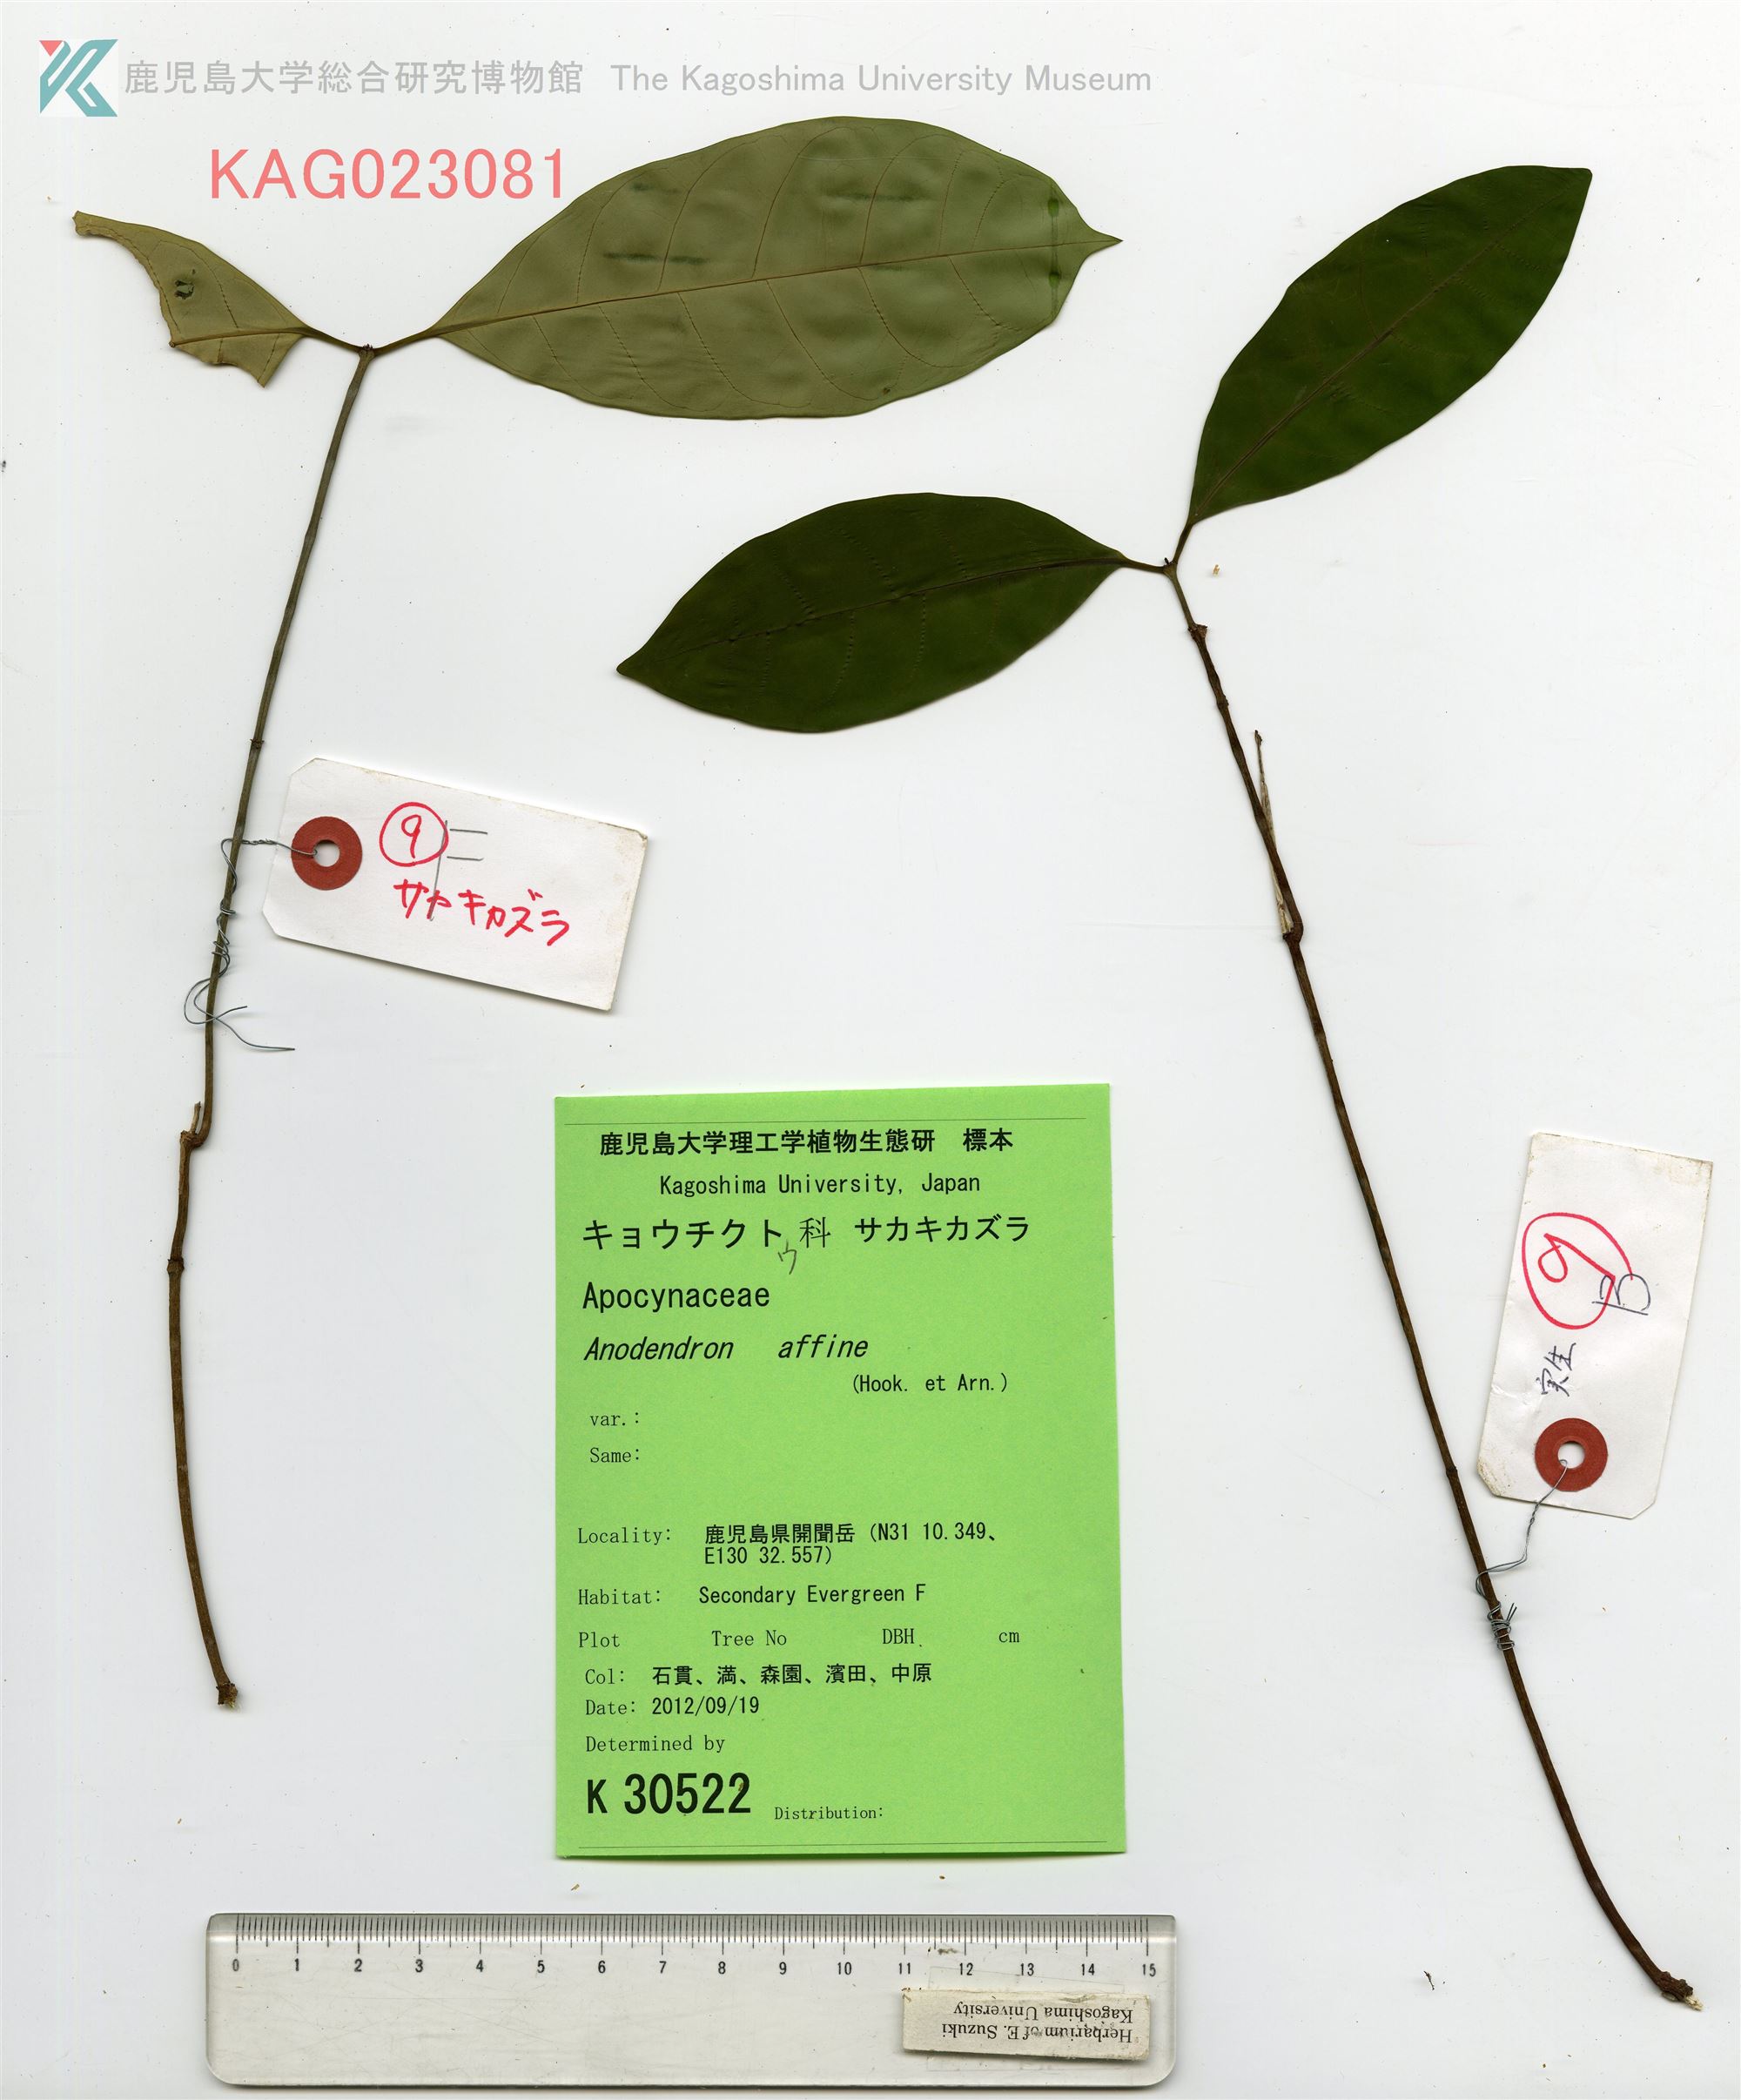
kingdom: Plantae
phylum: Tracheophyta
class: Magnoliopsida
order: Gentianales
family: Apocynaceae
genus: Anodendron
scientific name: Anodendron affine
